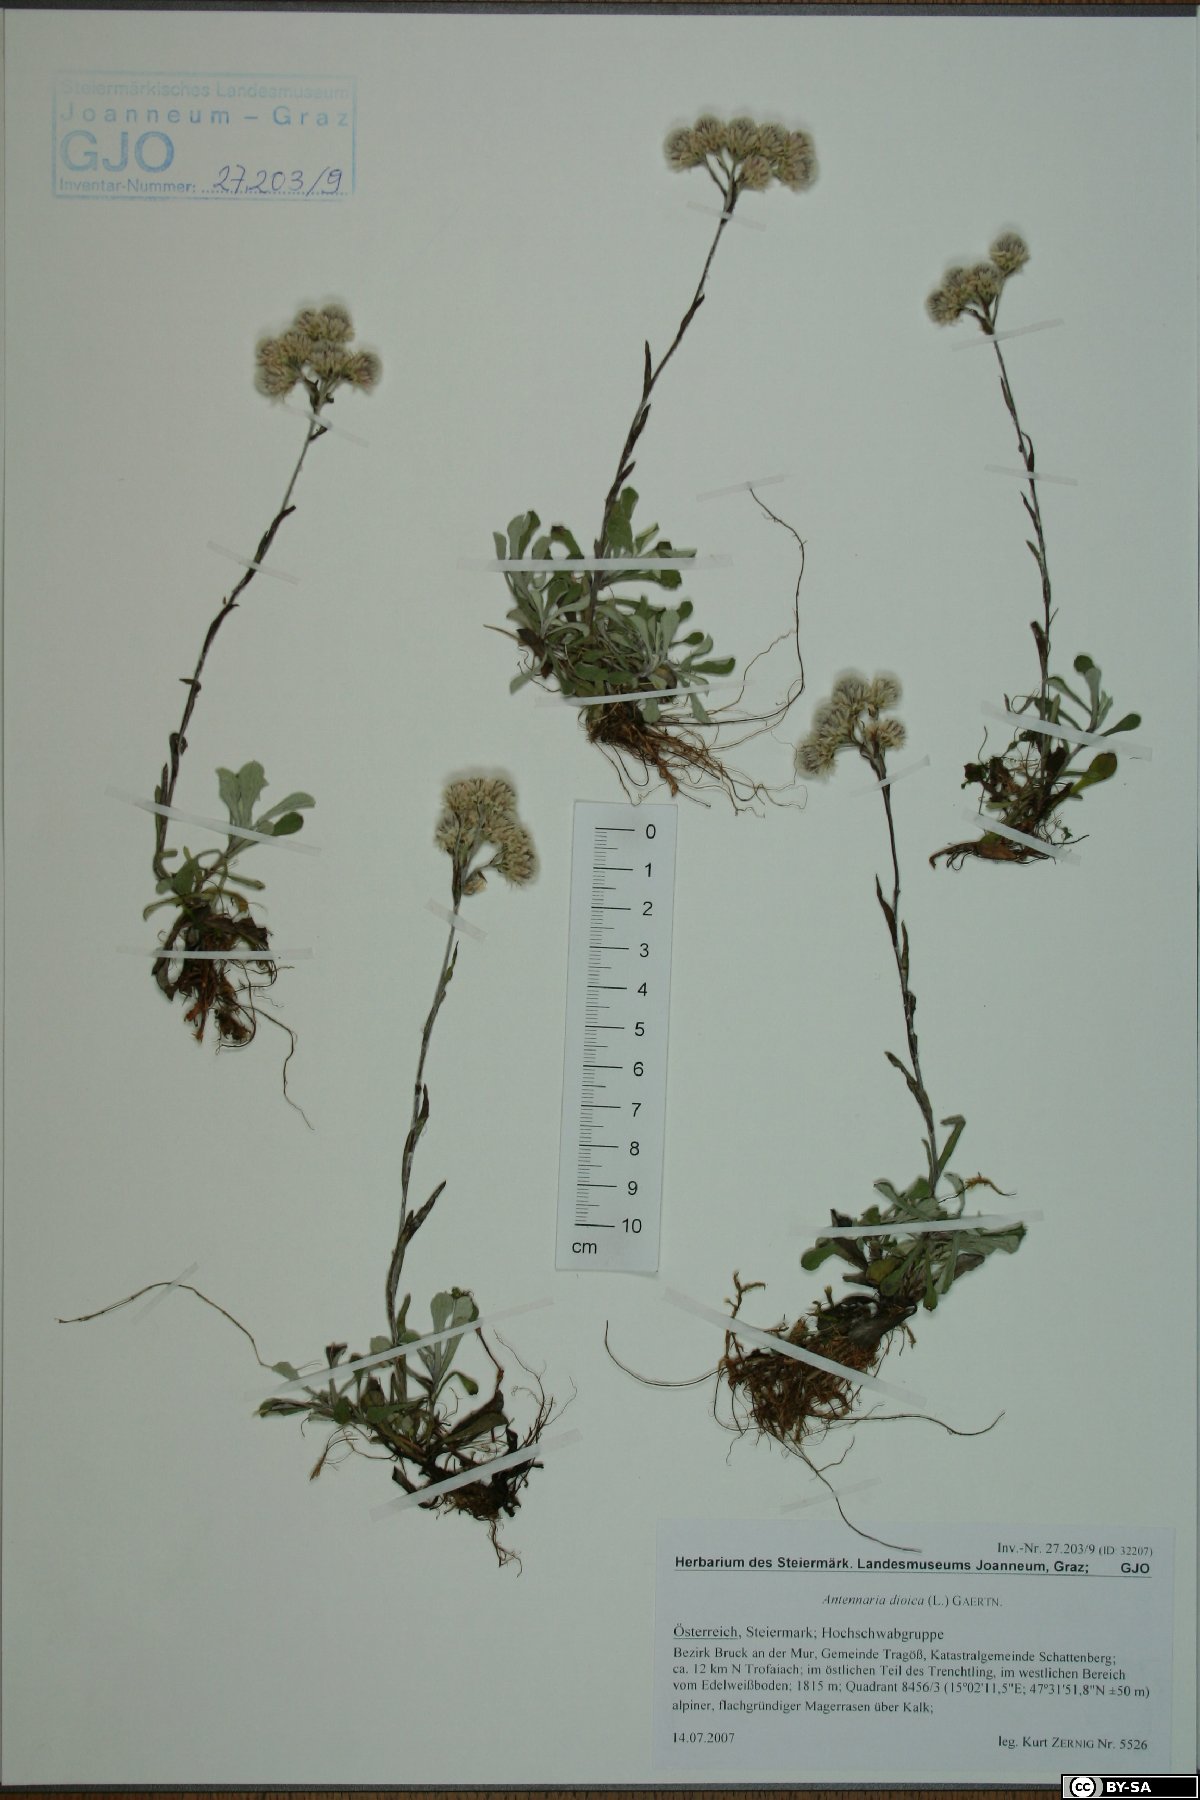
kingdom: Plantae
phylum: Tracheophyta
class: Magnoliopsida
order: Asterales
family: Asteraceae
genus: Antennaria
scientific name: Antennaria dioica
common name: Mountain everlasting
